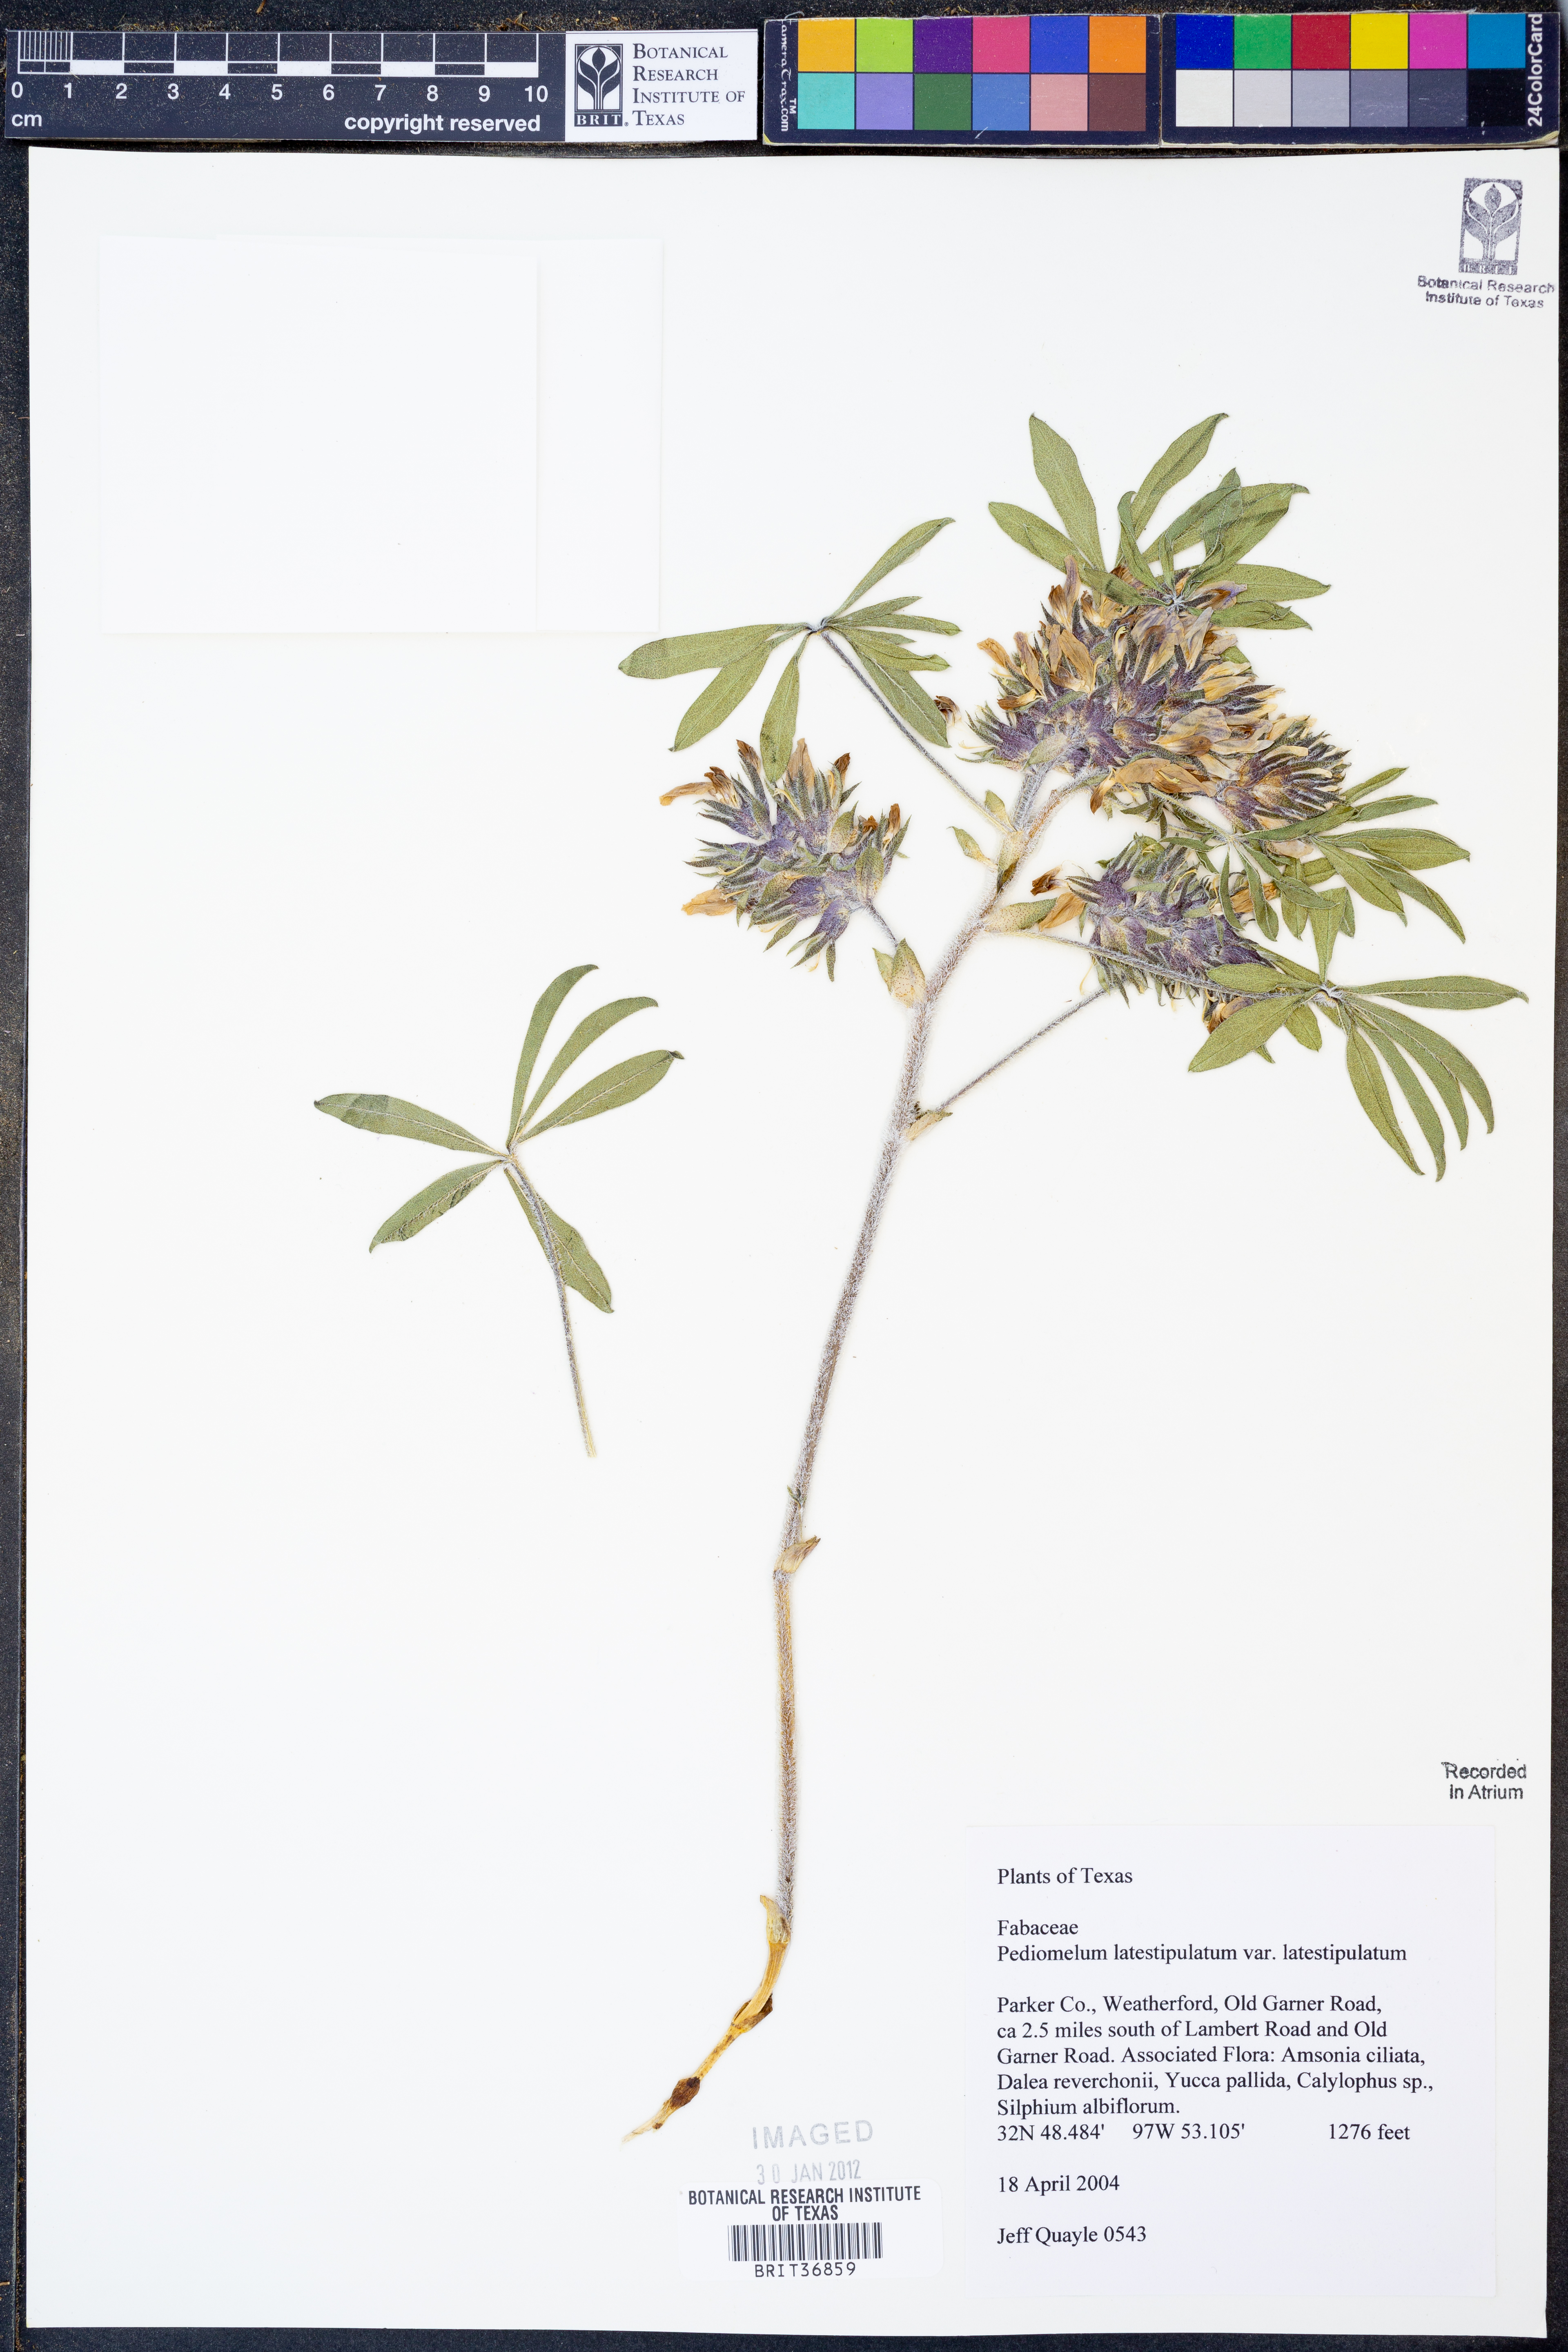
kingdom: Plantae
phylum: Tracheophyta
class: Magnoliopsida
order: Fabales
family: Fabaceae
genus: Pediomelum
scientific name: Pediomelum latestipulatum
